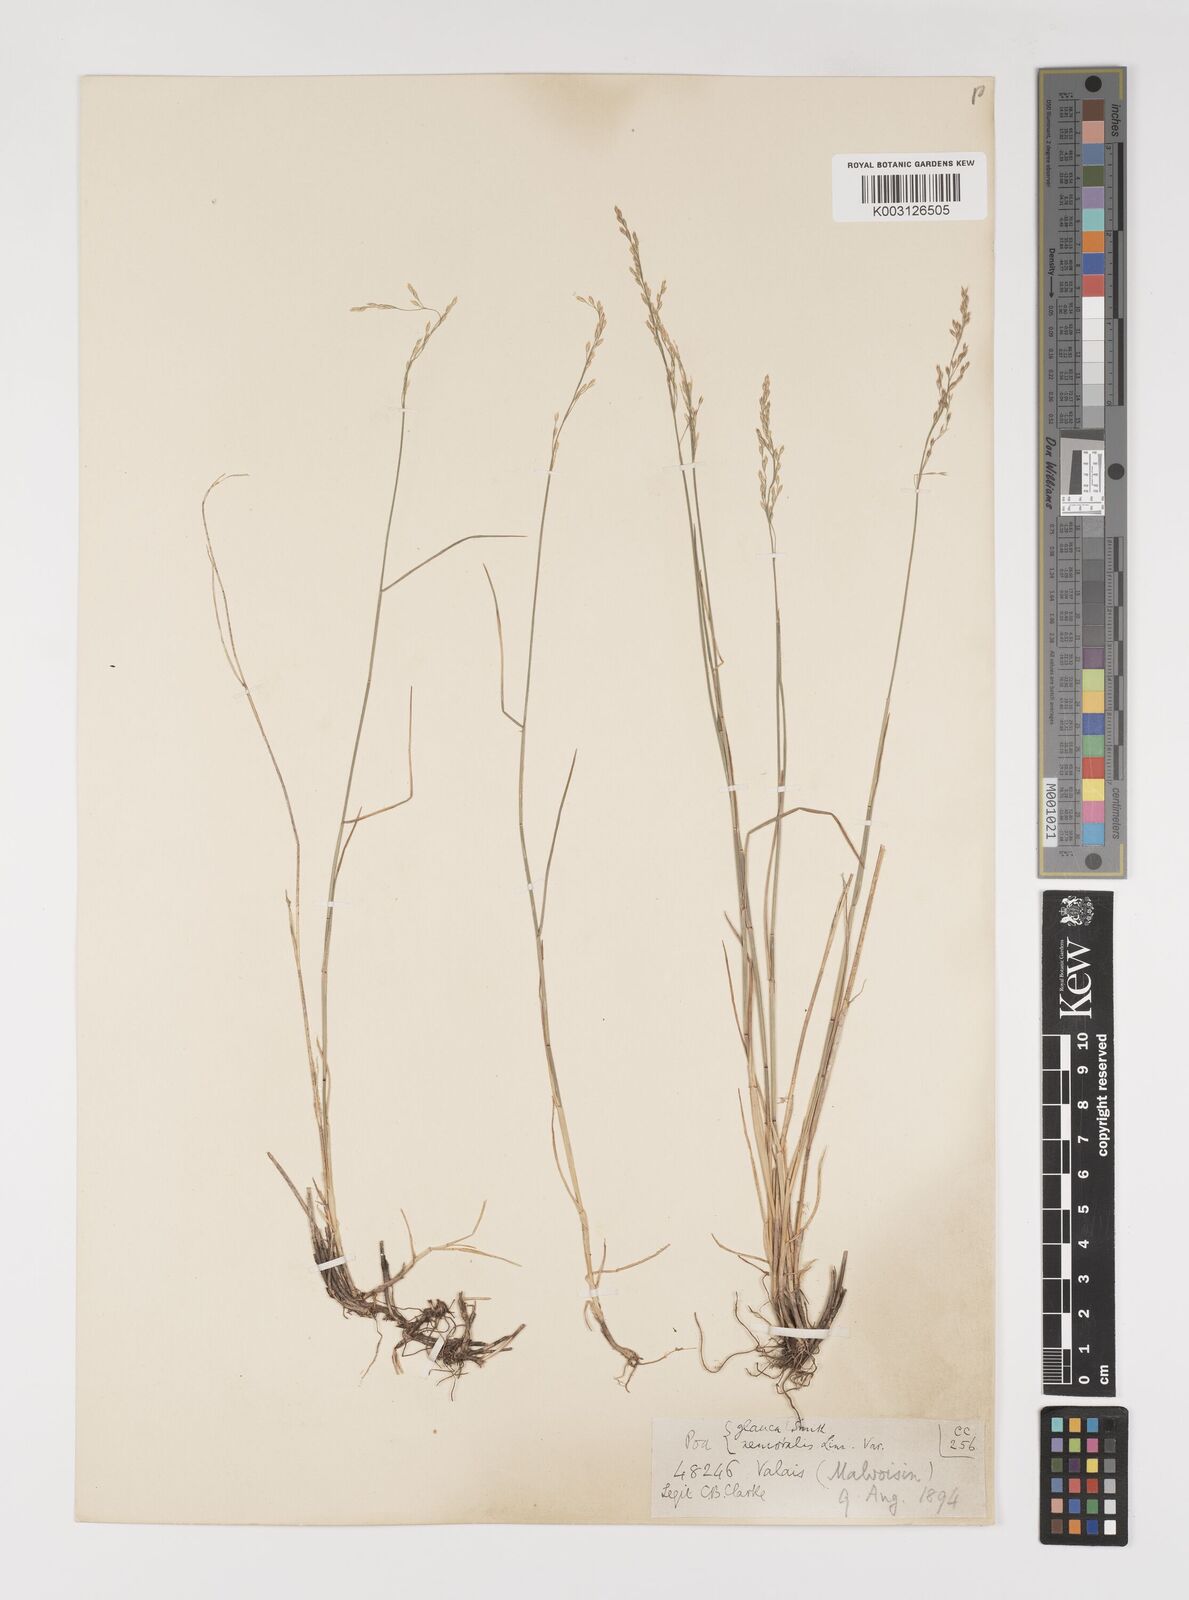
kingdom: Plantae
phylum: Tracheophyta
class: Liliopsida
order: Poales
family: Poaceae
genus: Poa
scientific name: Poa nemoralis
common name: Wood bluegrass
